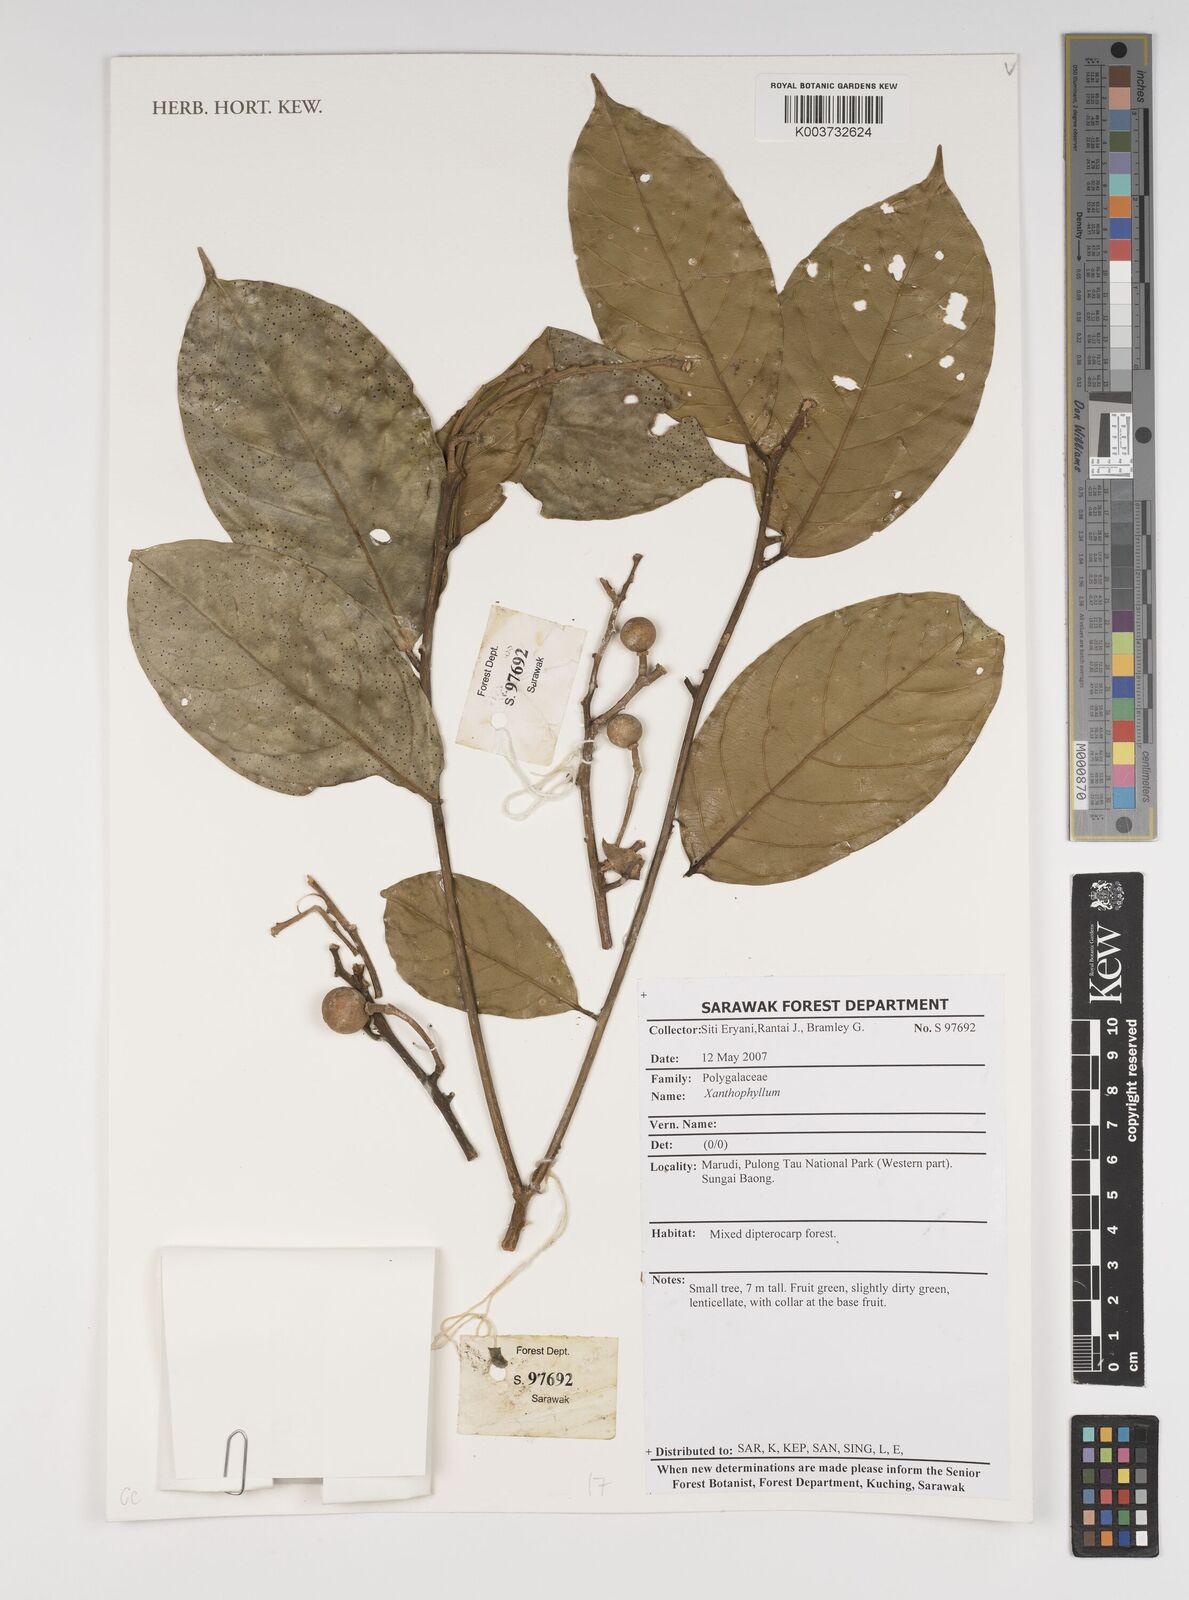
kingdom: Plantae
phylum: Tracheophyta
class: Magnoliopsida
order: Fabales
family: Polygalaceae
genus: Xanthophyllum
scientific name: Xanthophyllum
